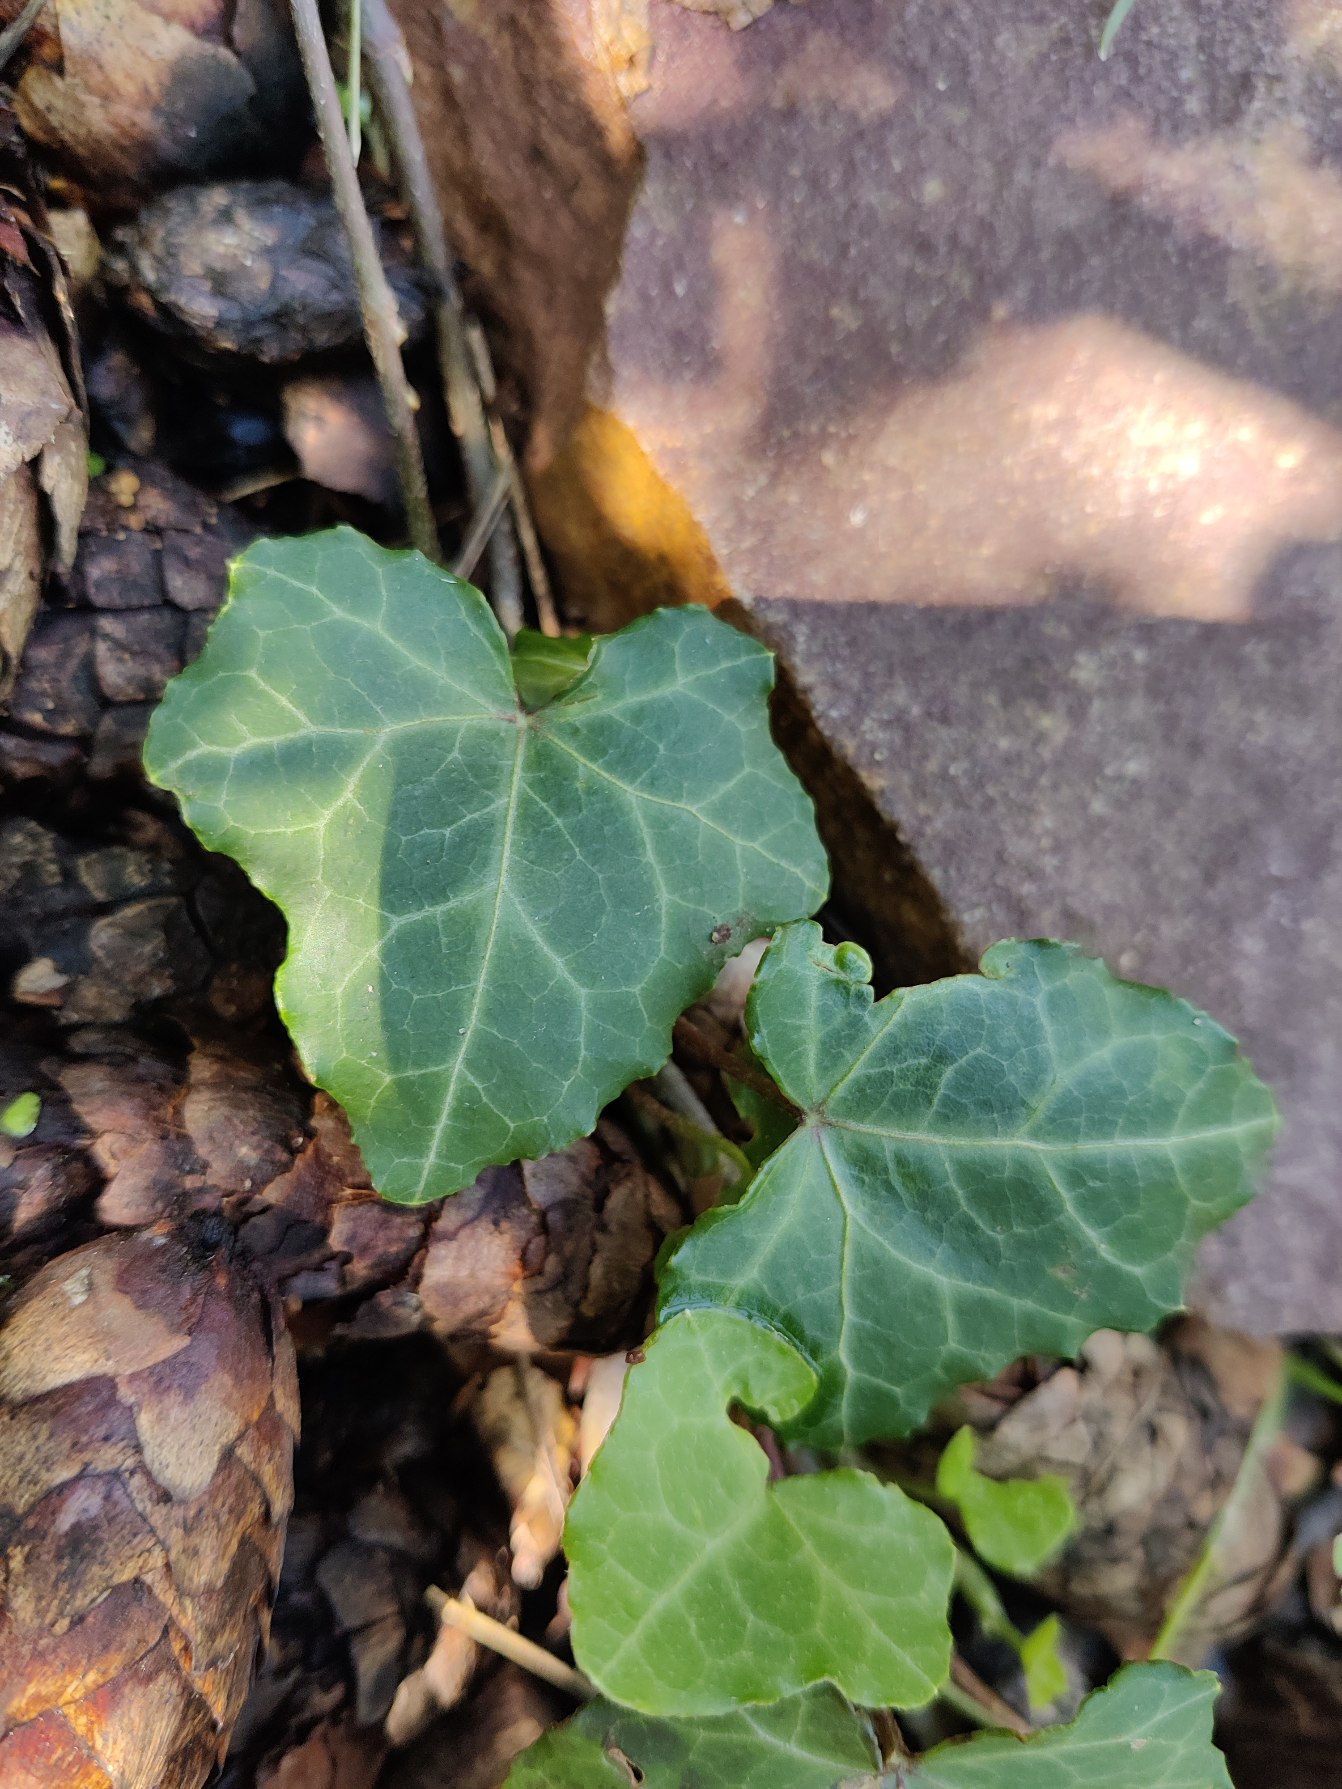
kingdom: Plantae
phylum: Tracheophyta
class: Magnoliopsida
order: Apiales
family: Araliaceae
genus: Hedera
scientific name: Hedera
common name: Vedbendslægten
